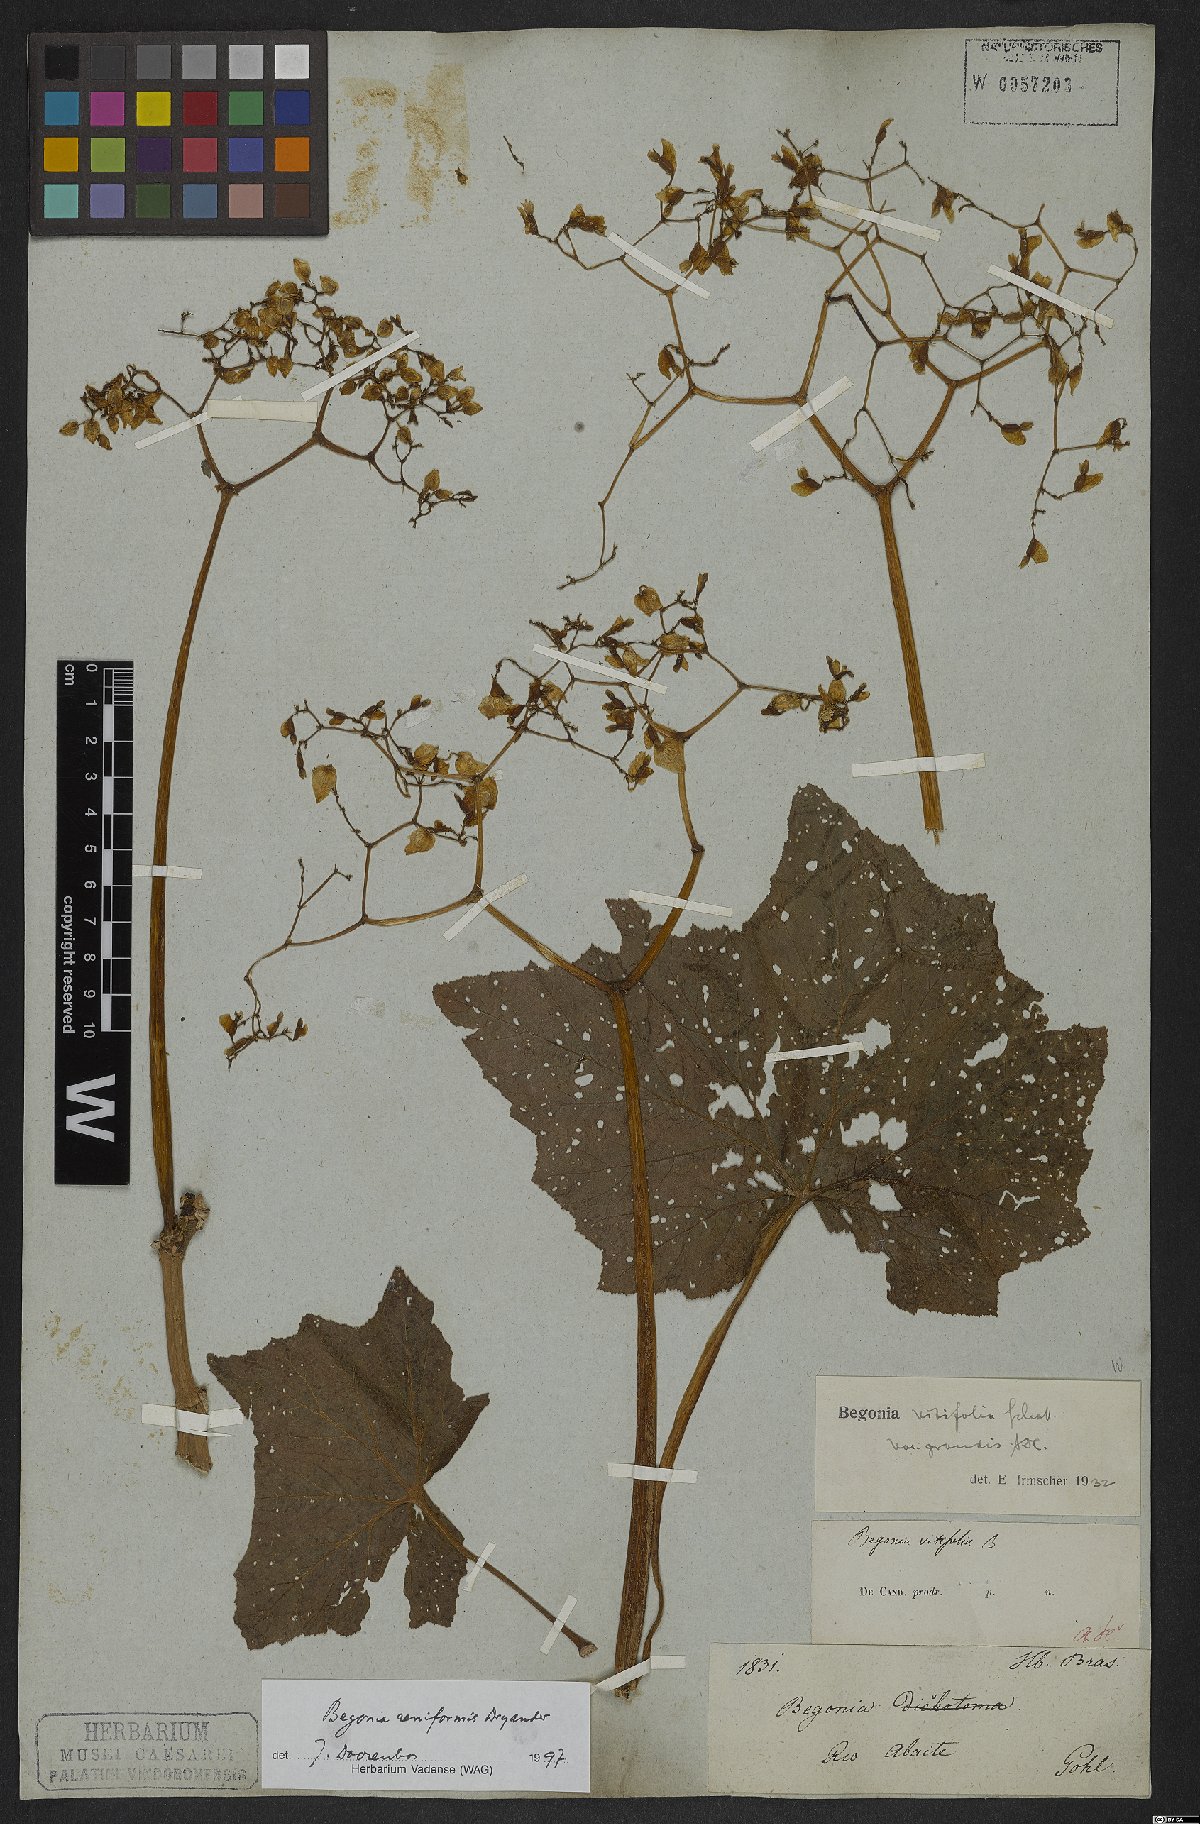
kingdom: Plantae
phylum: Tracheophyta
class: Magnoliopsida
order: Cucurbitales
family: Begoniaceae
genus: Begonia
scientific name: Begonia reniformis
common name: Grapeleaf begonia
